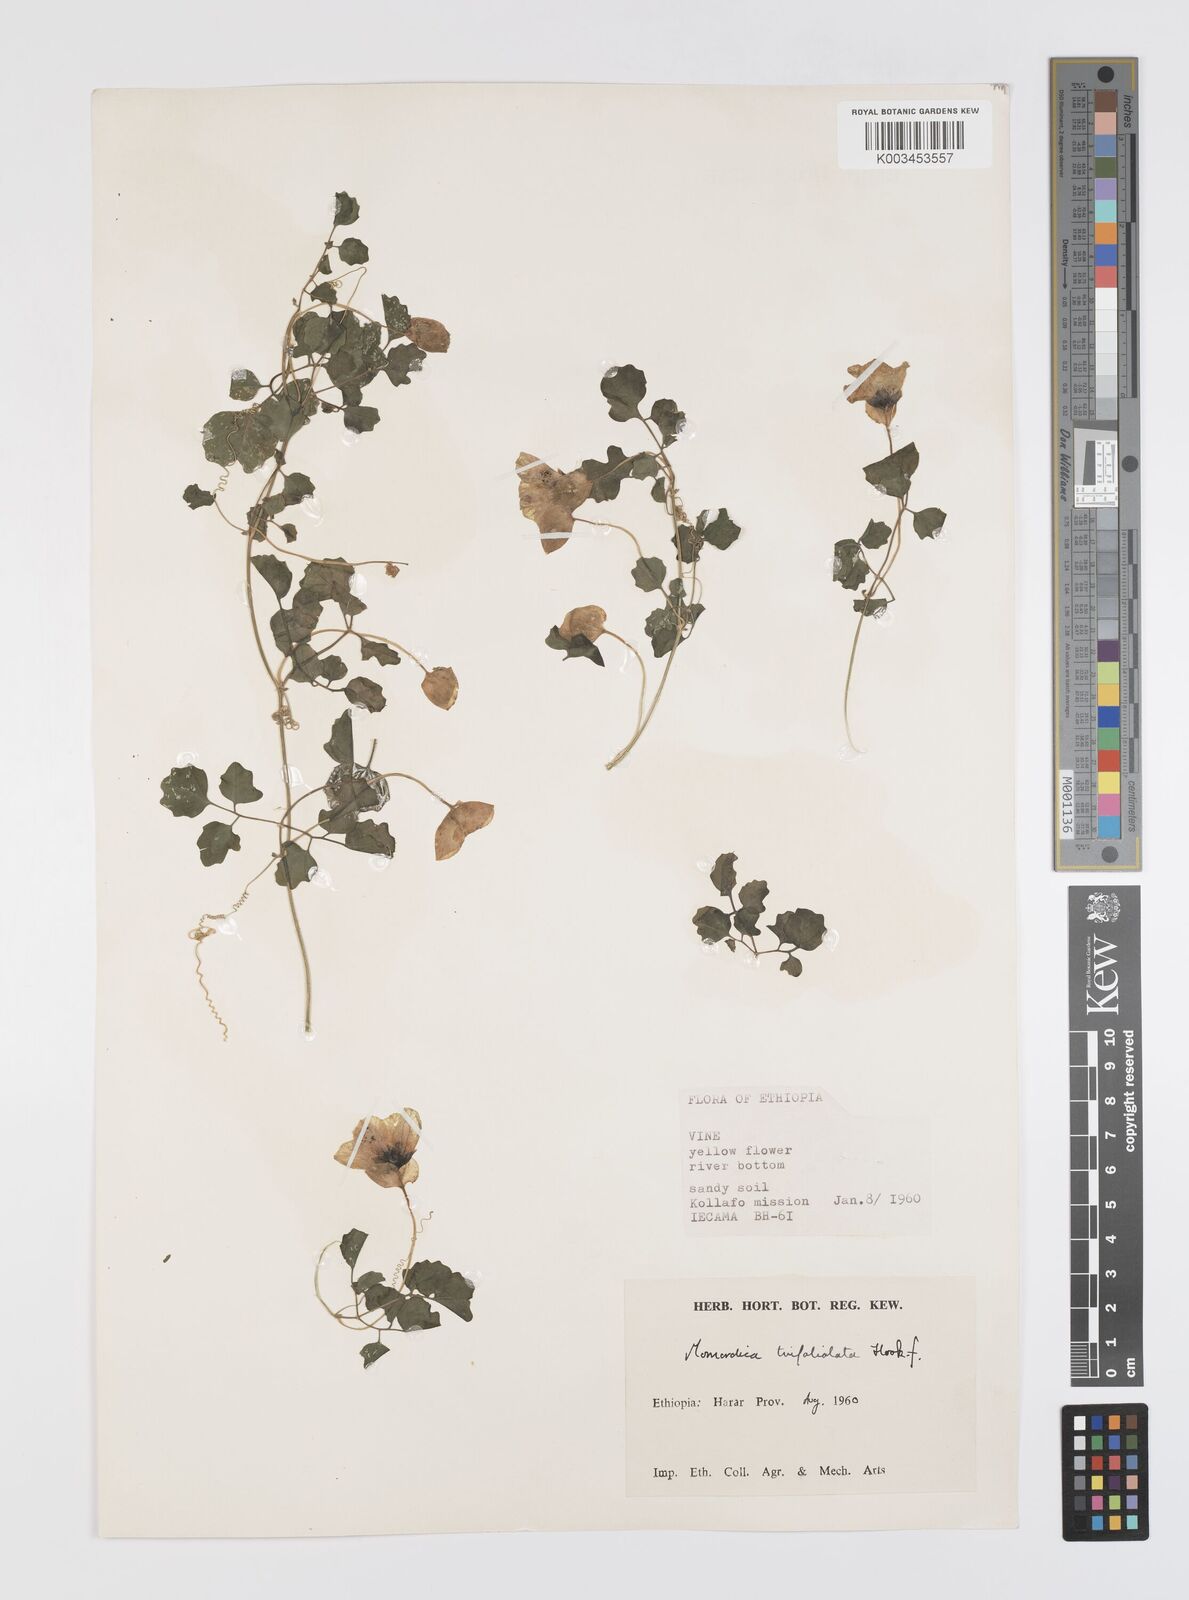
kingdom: Plantae
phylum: Tracheophyta
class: Magnoliopsida
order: Cucurbitales
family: Cucurbitaceae
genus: Momordica
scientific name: Momordica trifoliolata
